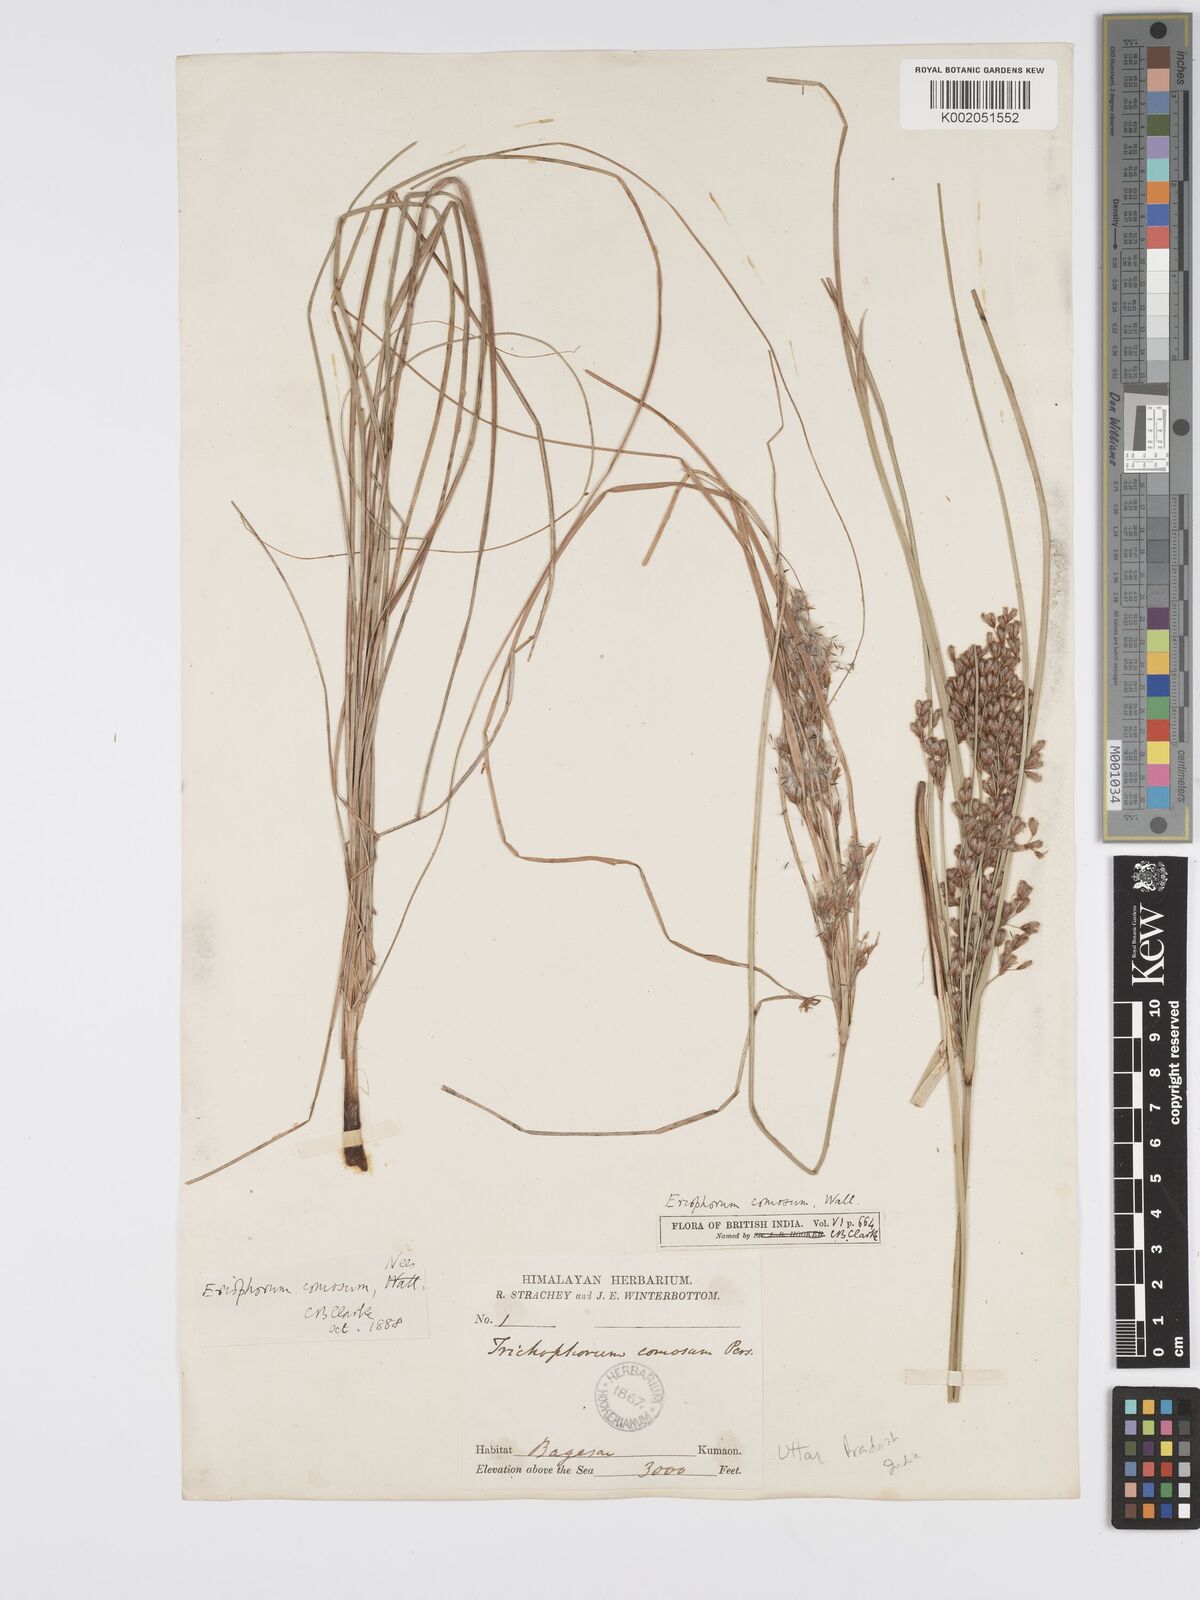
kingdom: Plantae
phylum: Tracheophyta
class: Liliopsida
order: Poales
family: Cyperaceae
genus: Erioscirpus
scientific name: Erioscirpus comosus
